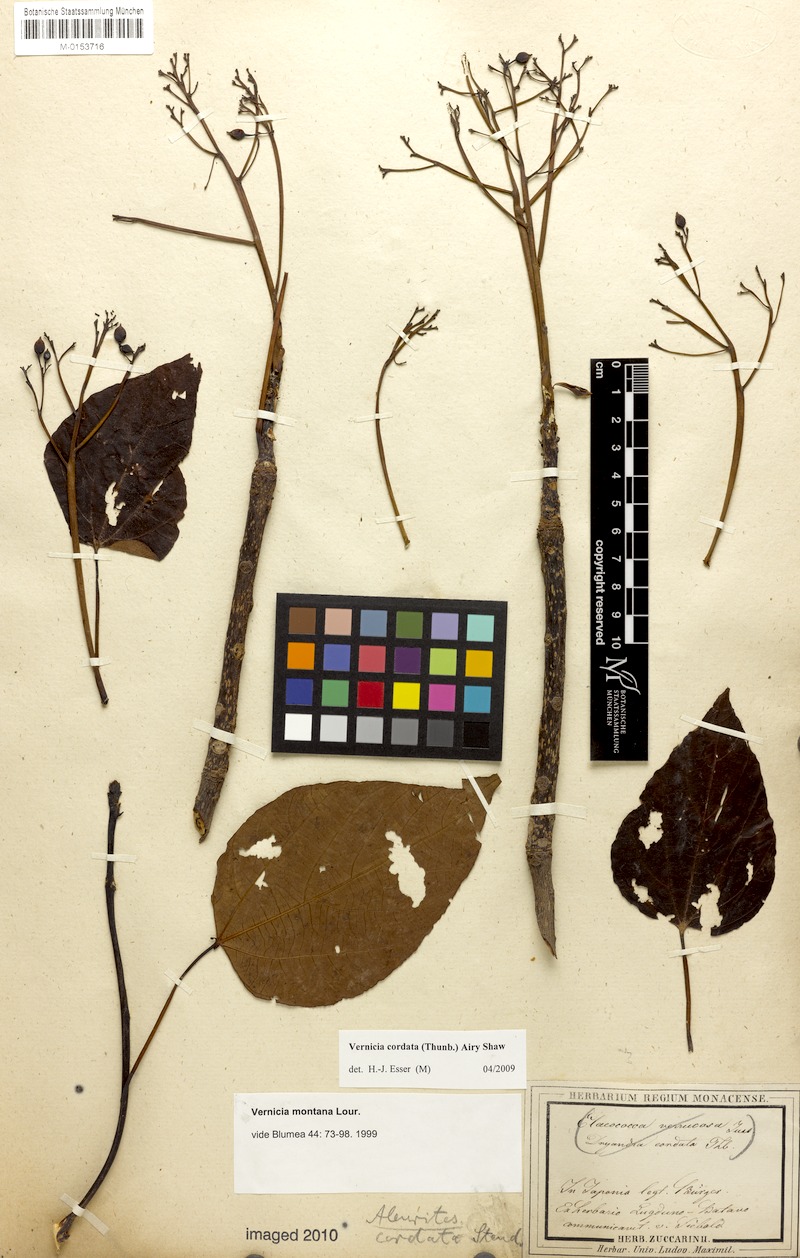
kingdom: Plantae
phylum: Tracheophyta
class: Magnoliopsida
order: Malpighiales
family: Euphorbiaceae
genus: Vernicia
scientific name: Vernicia cordata
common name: Japanese tung-oil-tree
